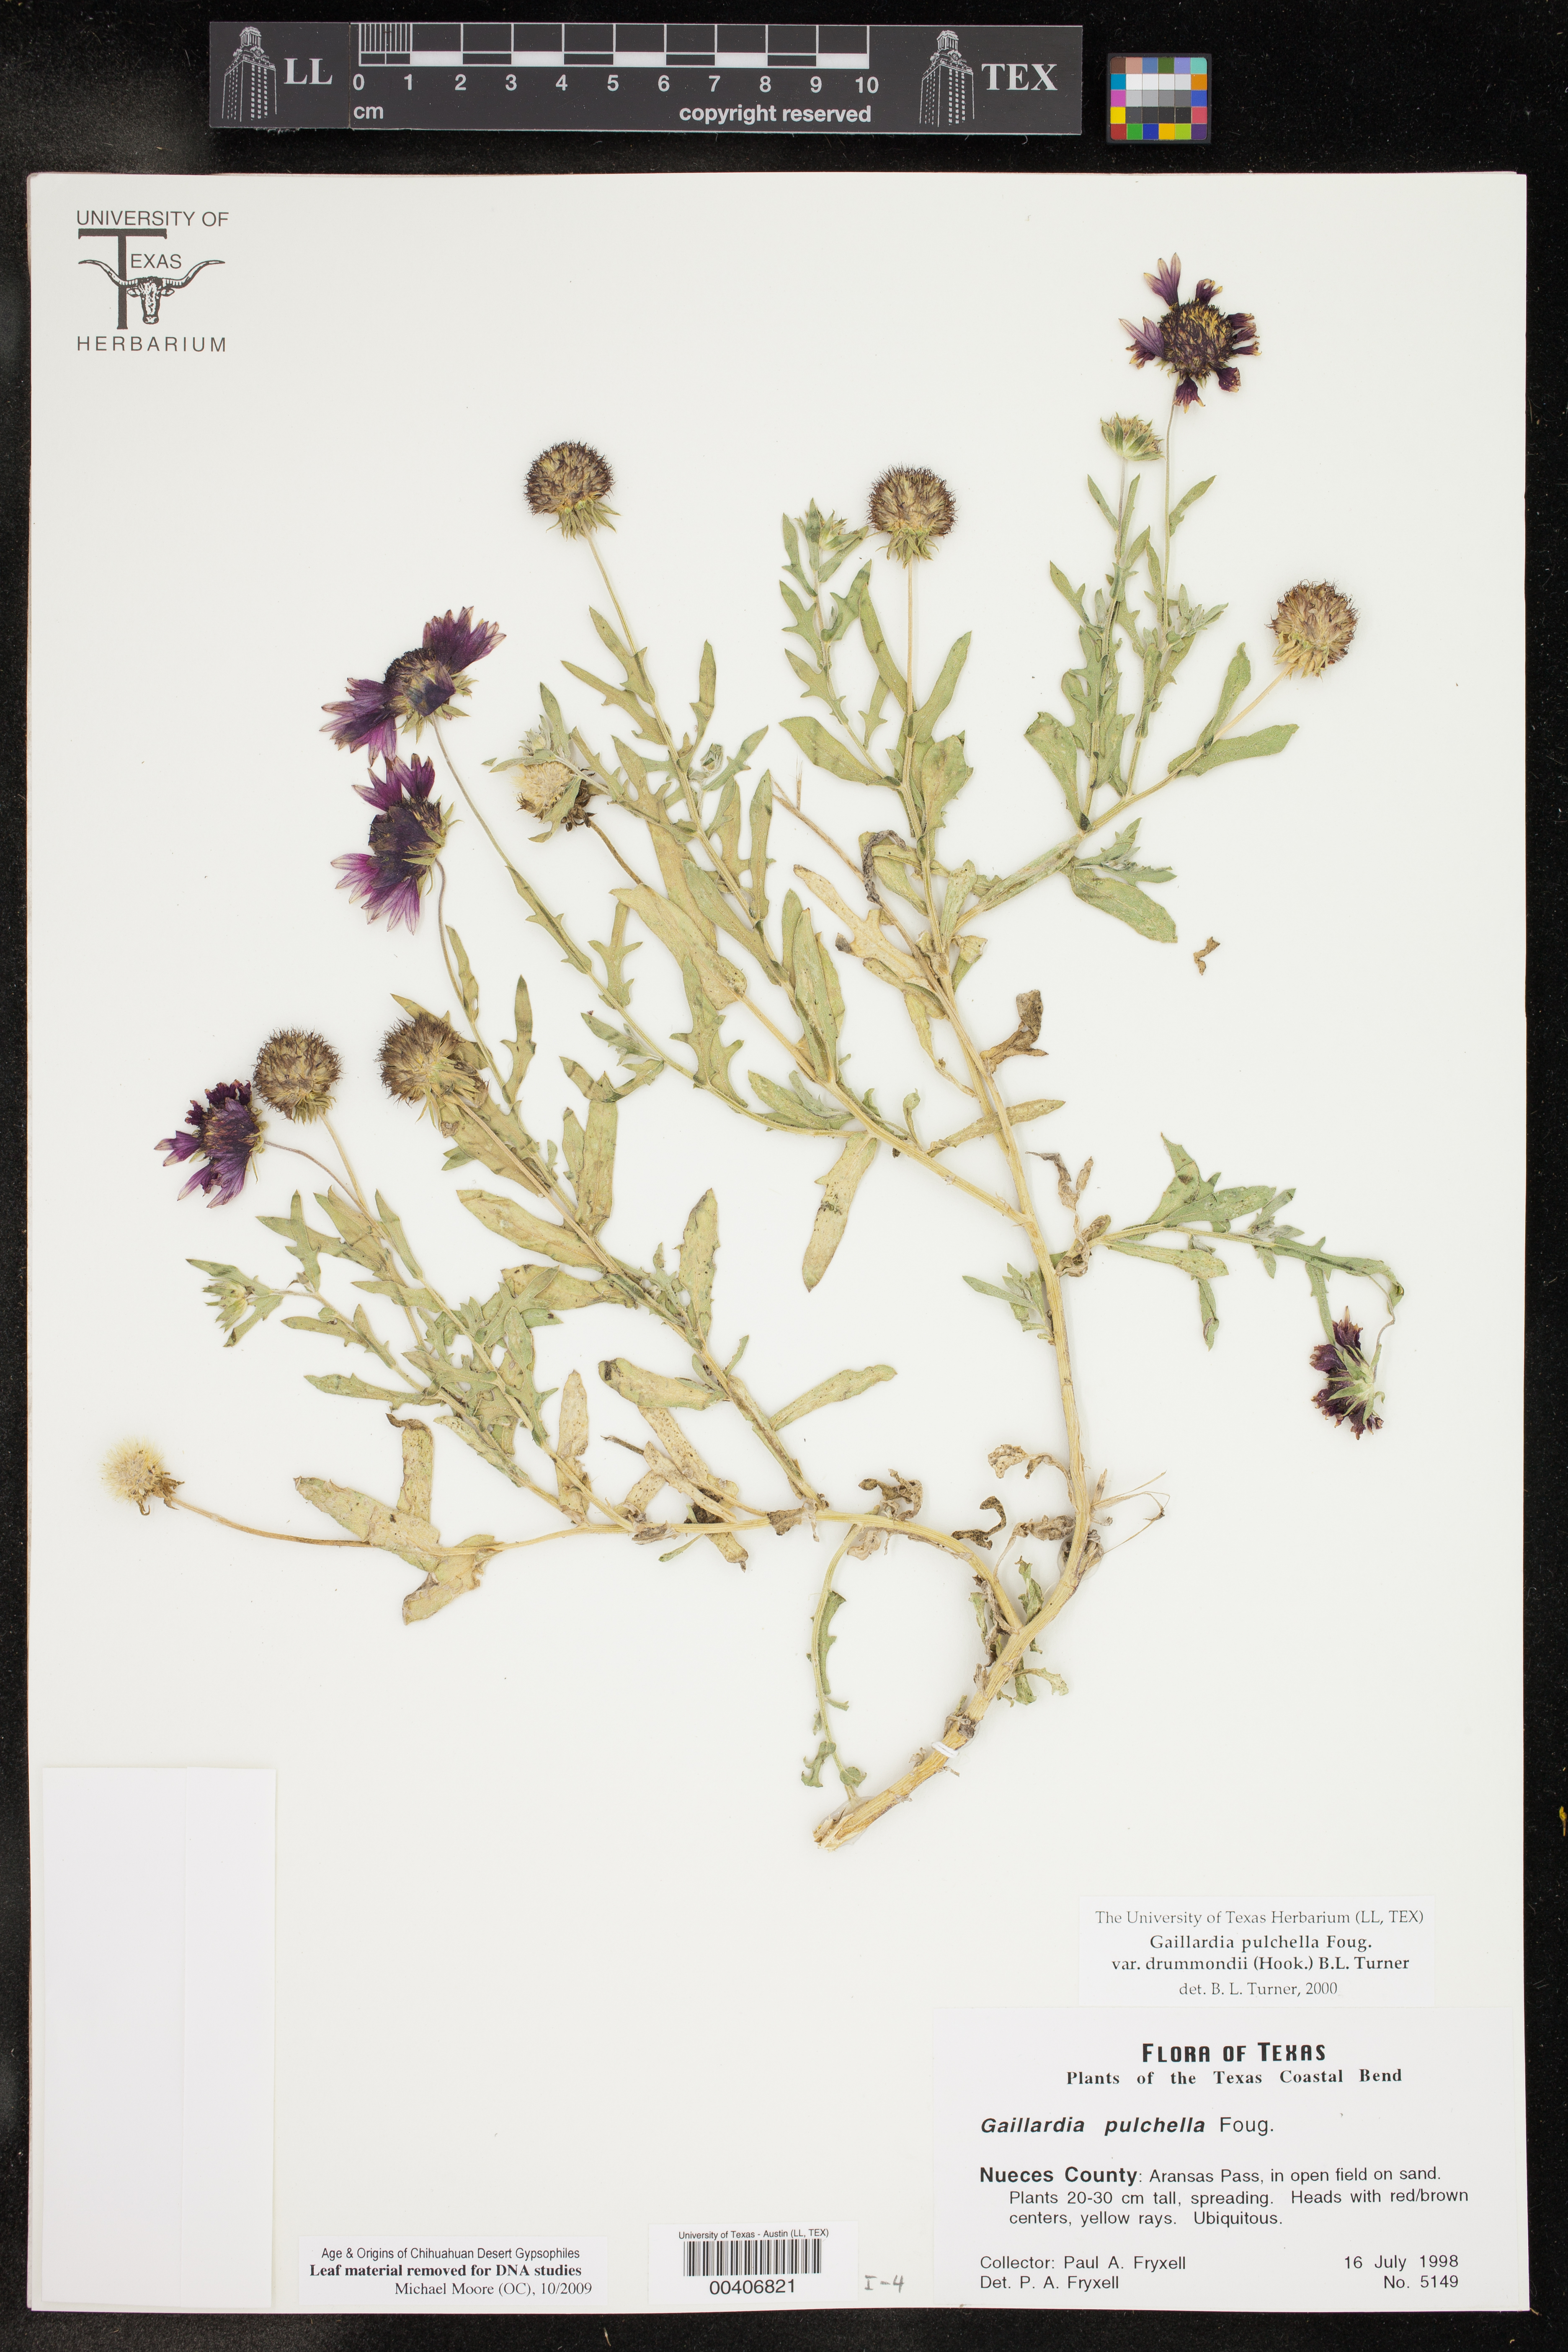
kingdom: Plantae
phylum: Tracheophyta
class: Magnoliopsida
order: Asterales
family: Asteraceae
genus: Gaillardia
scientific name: Gaillardia pulchella
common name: Firewheel
